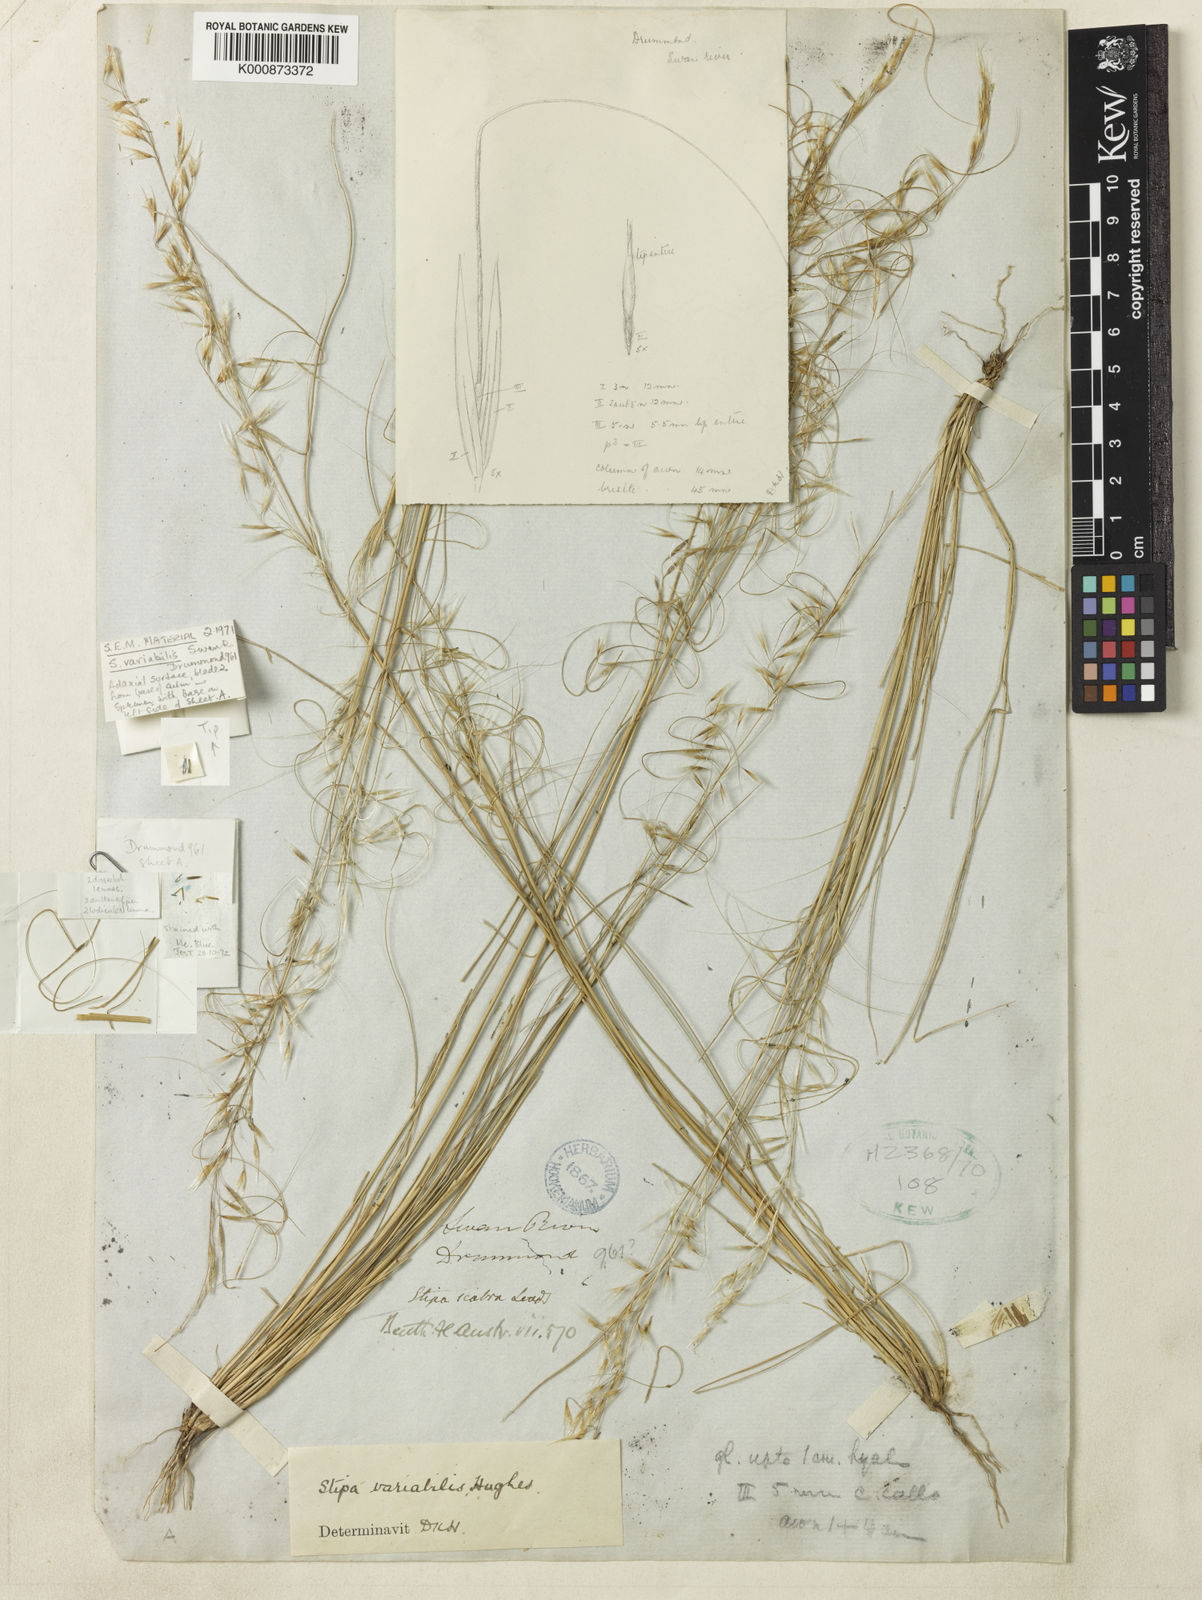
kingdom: Plantae
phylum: Tracheophyta
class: Liliopsida
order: Poales
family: Poaceae
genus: Austrostipa
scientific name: Austrostipa variabilis
